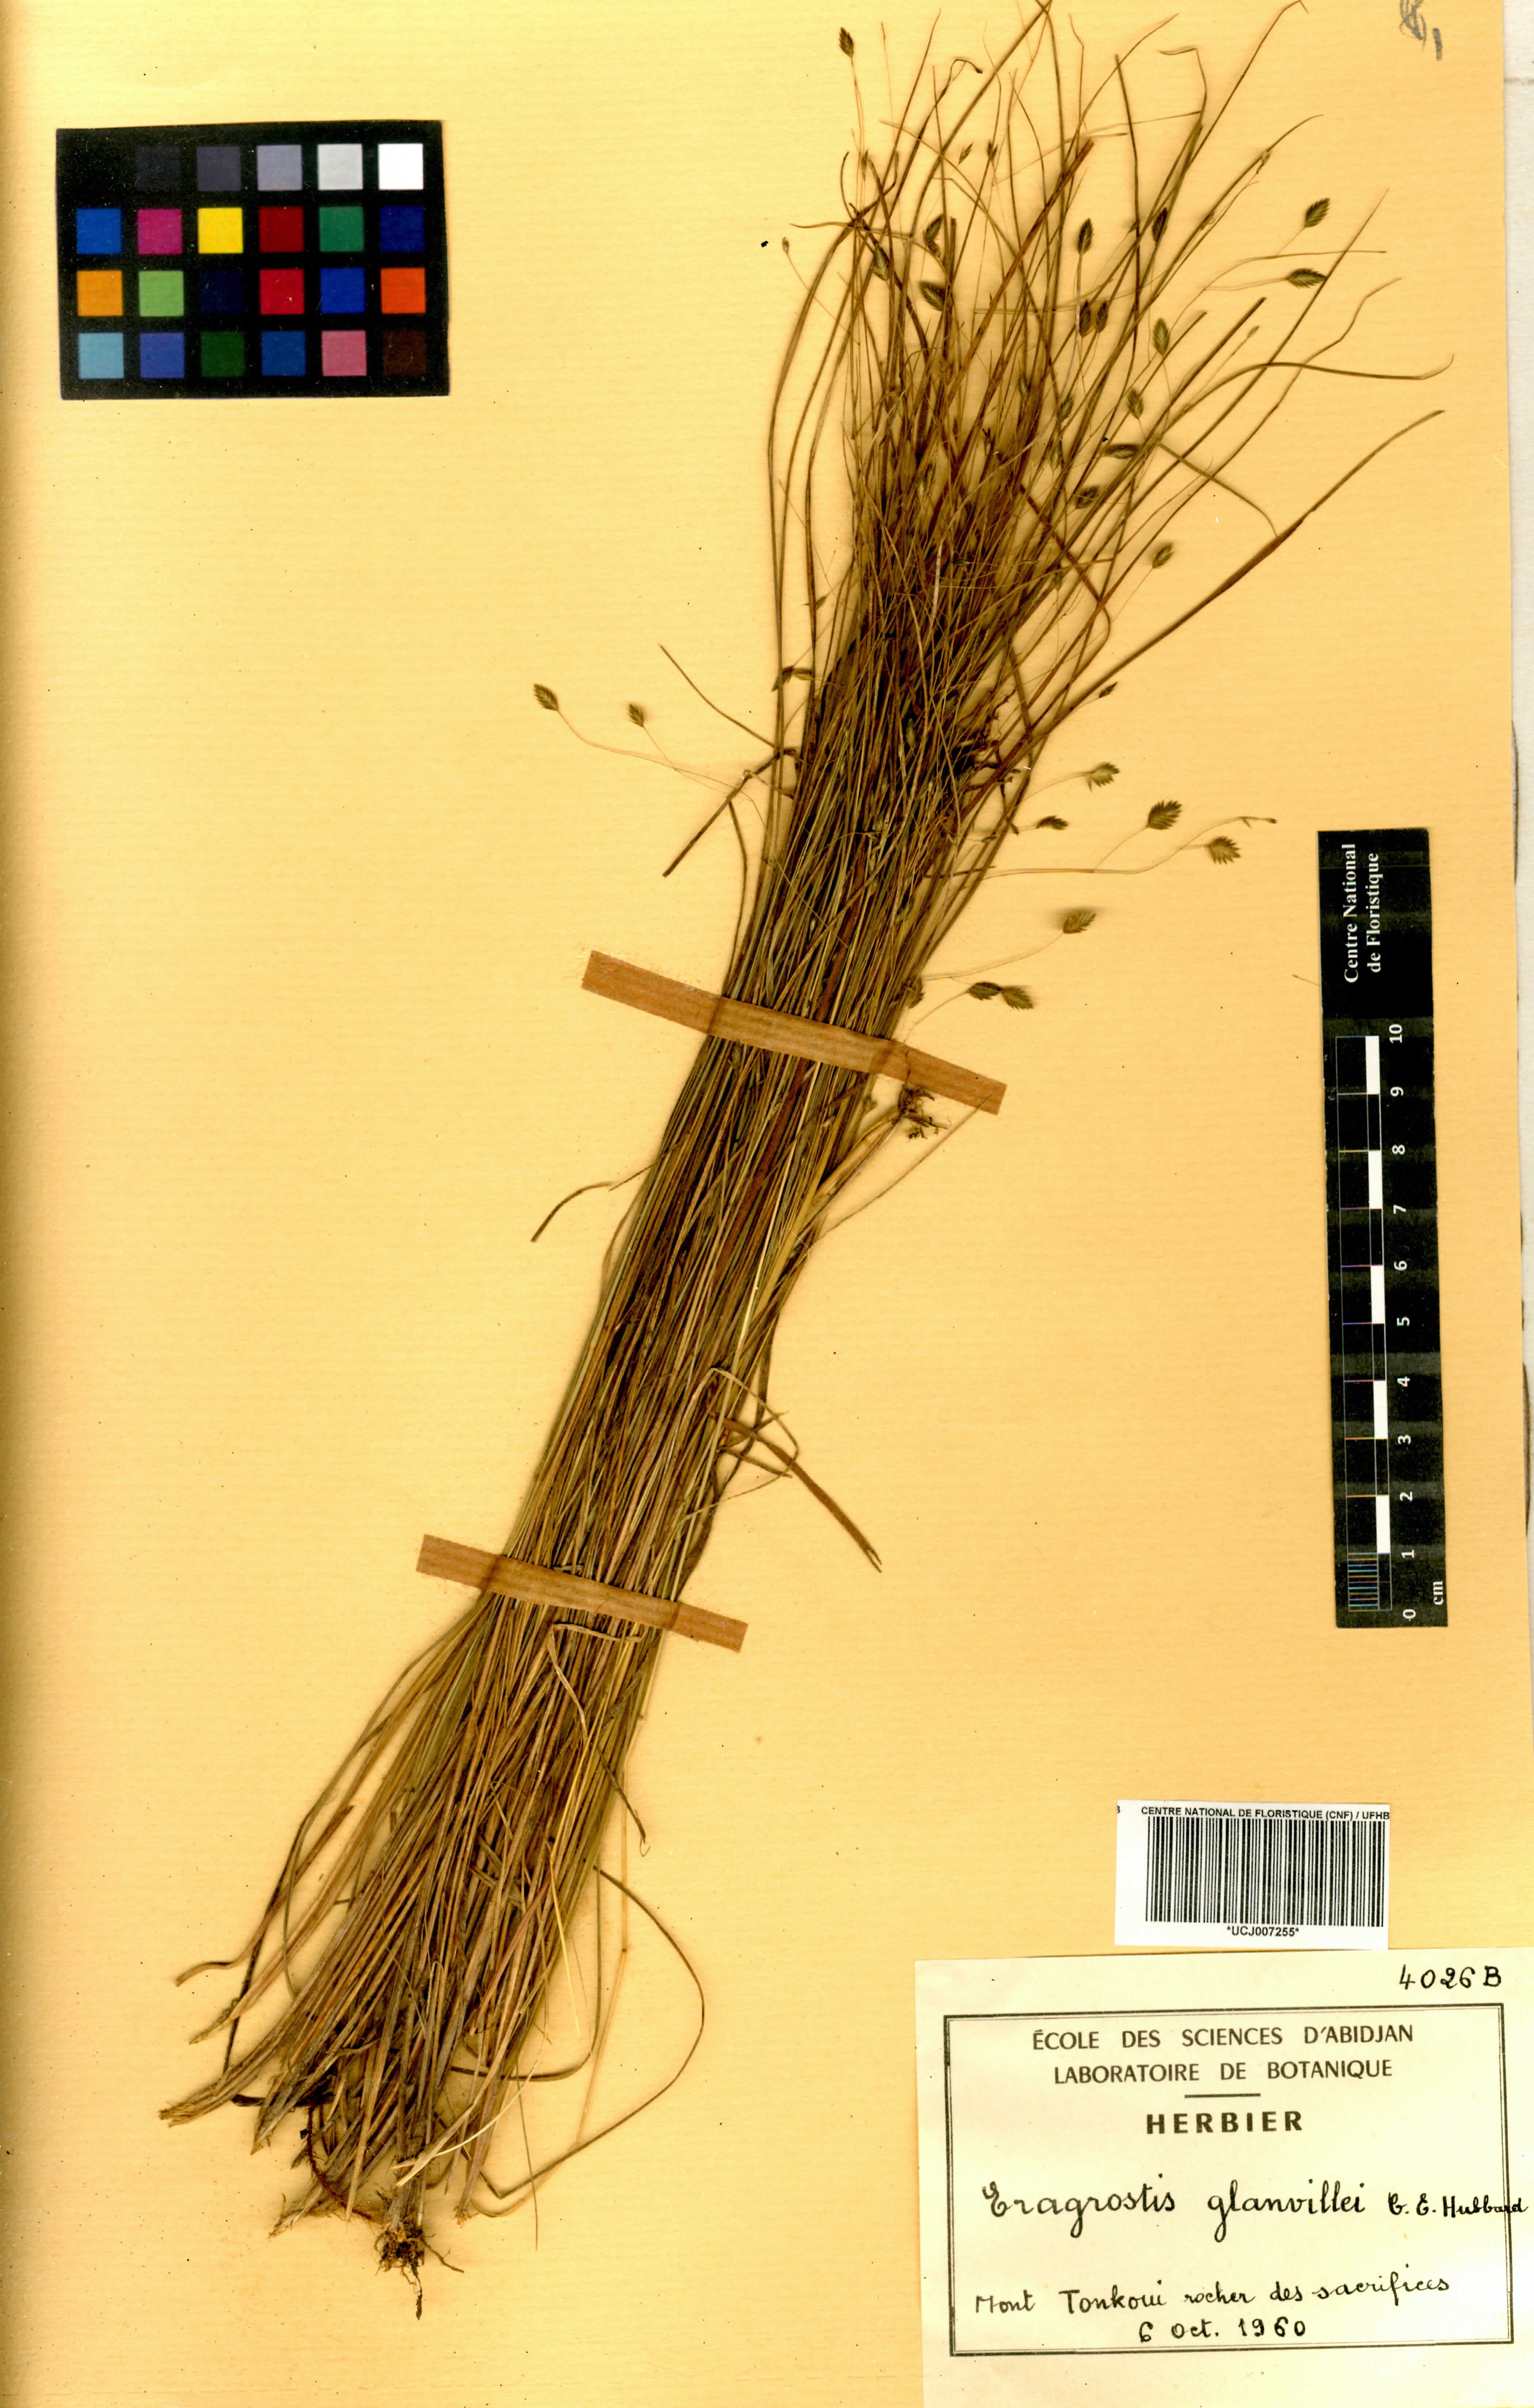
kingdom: Plantae
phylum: Tracheophyta
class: Liliopsida
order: Poales
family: Poaceae
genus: Eragrostis
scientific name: Eragrostis invalida
